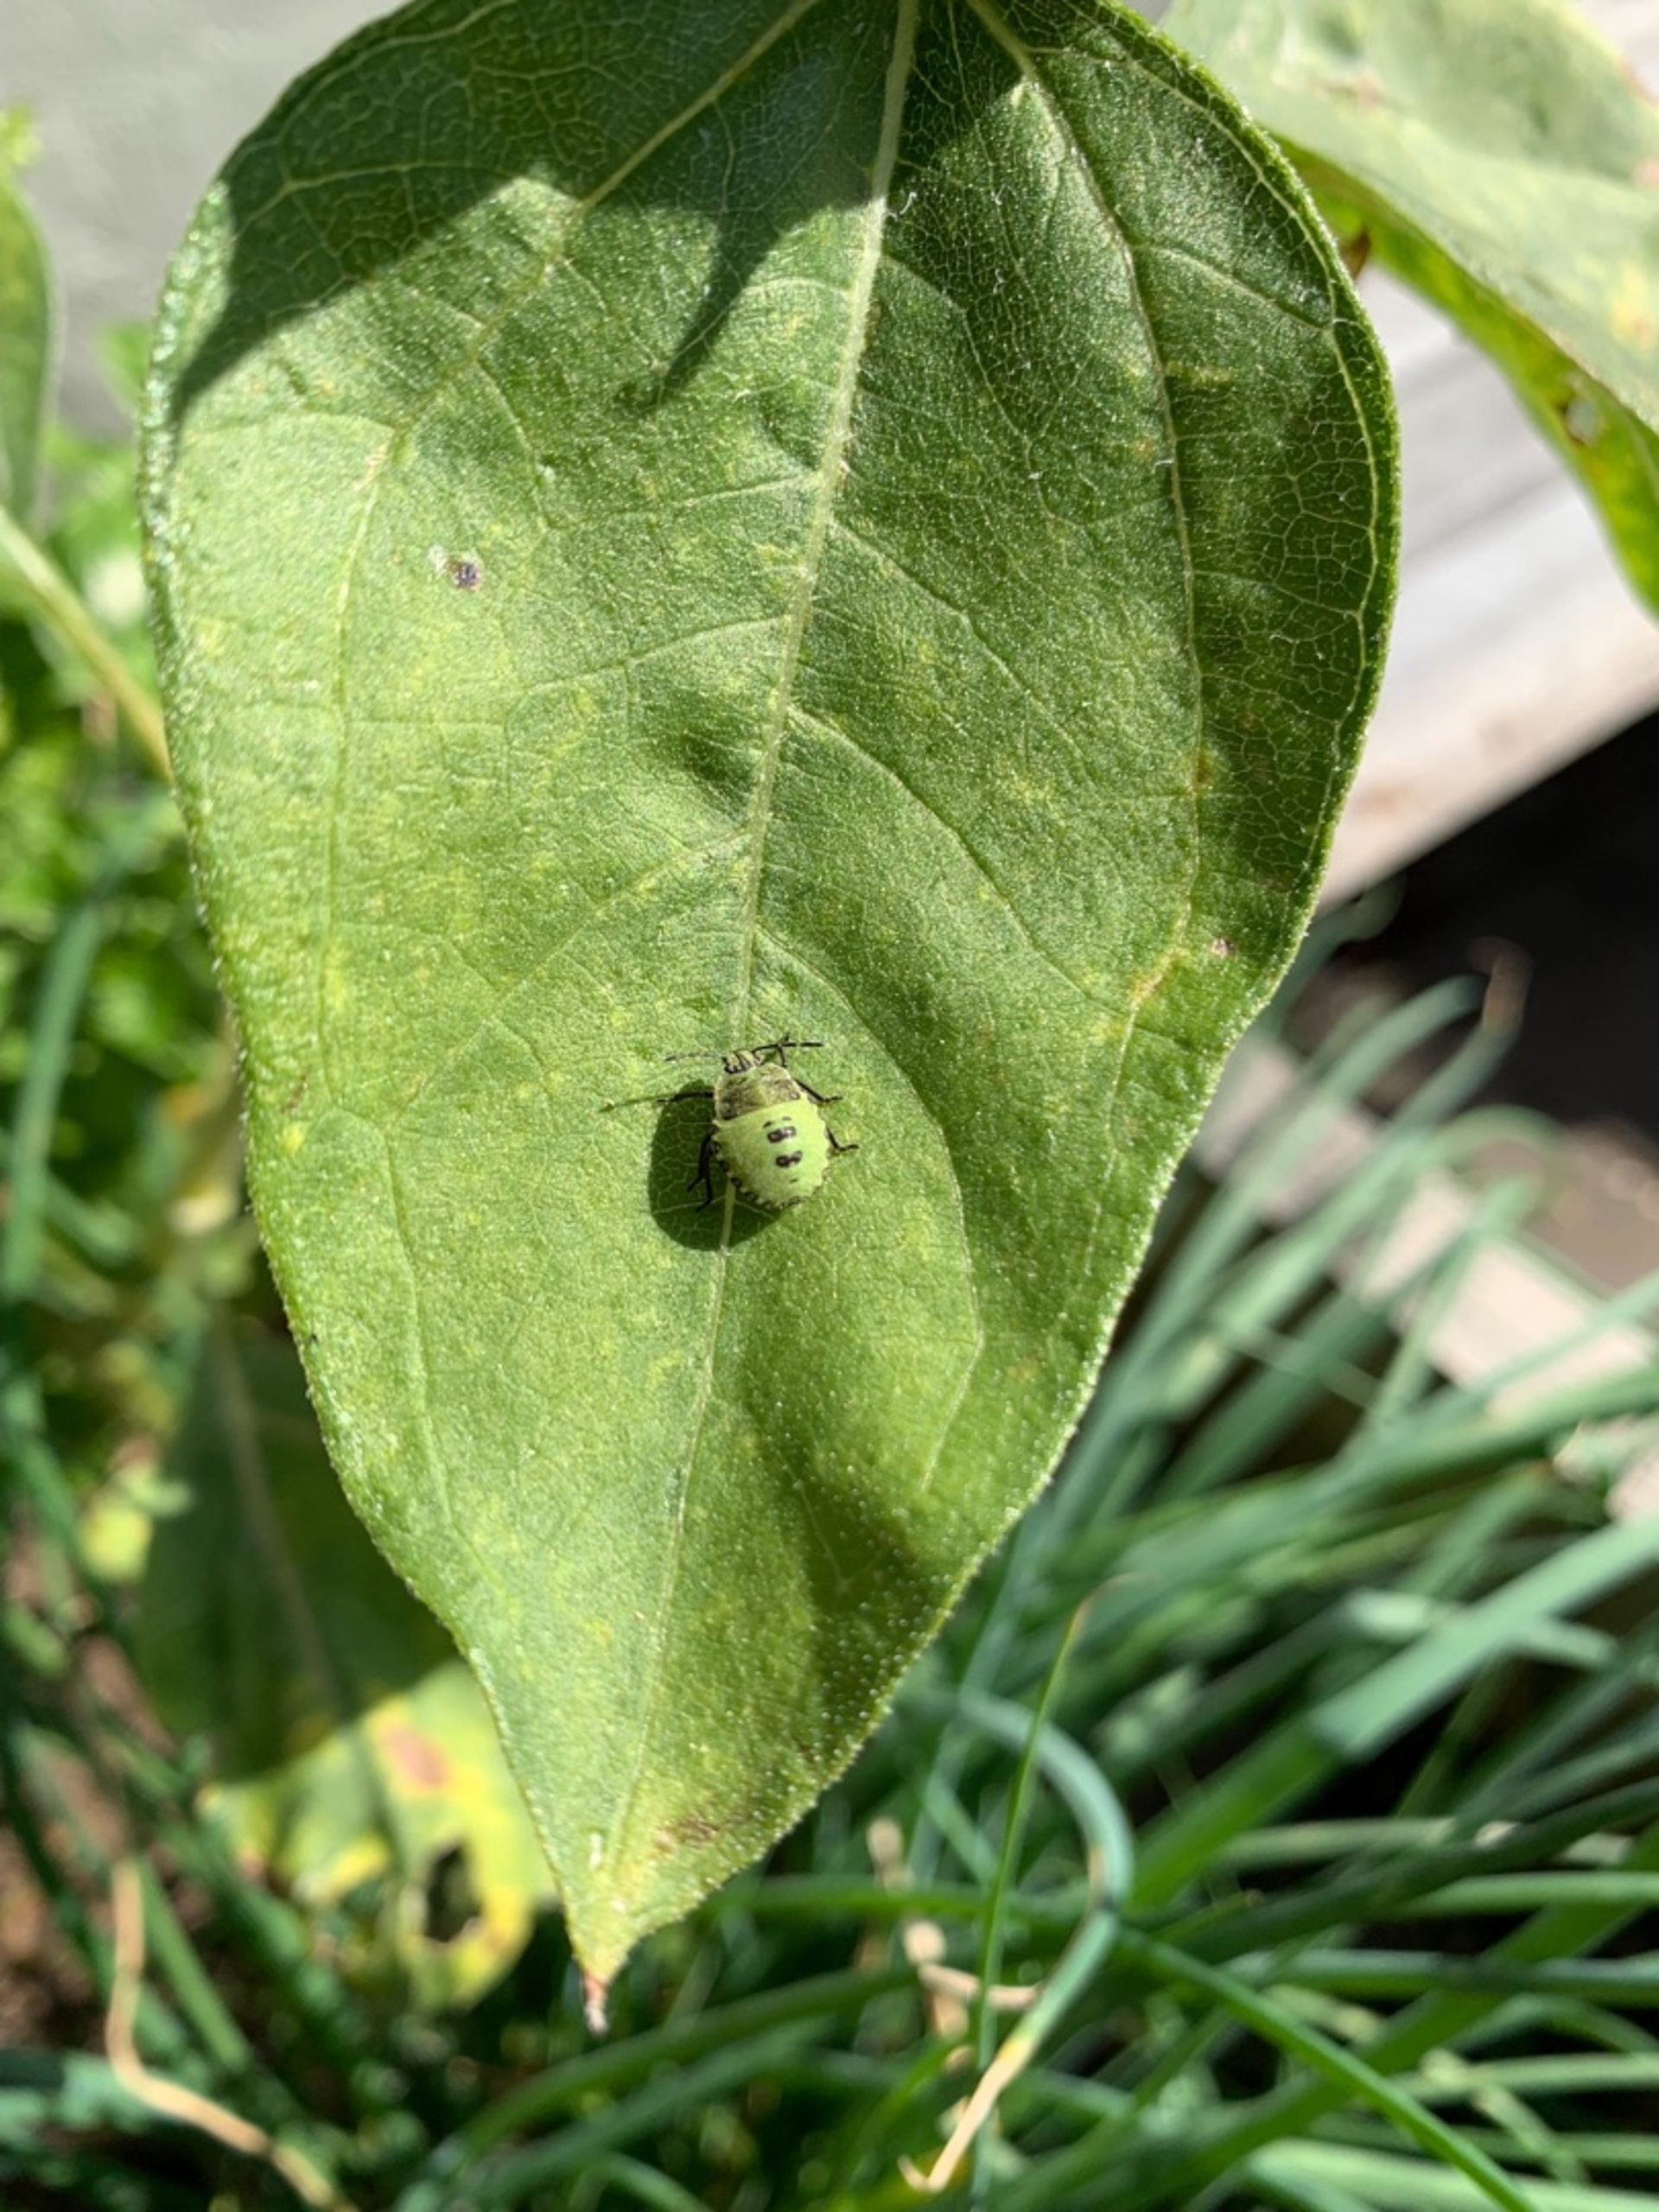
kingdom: Animalia
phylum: Arthropoda
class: Insecta
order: Hemiptera
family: Pentatomidae
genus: Palomena
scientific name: Palomena prasina
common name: Grøn bredtæge
